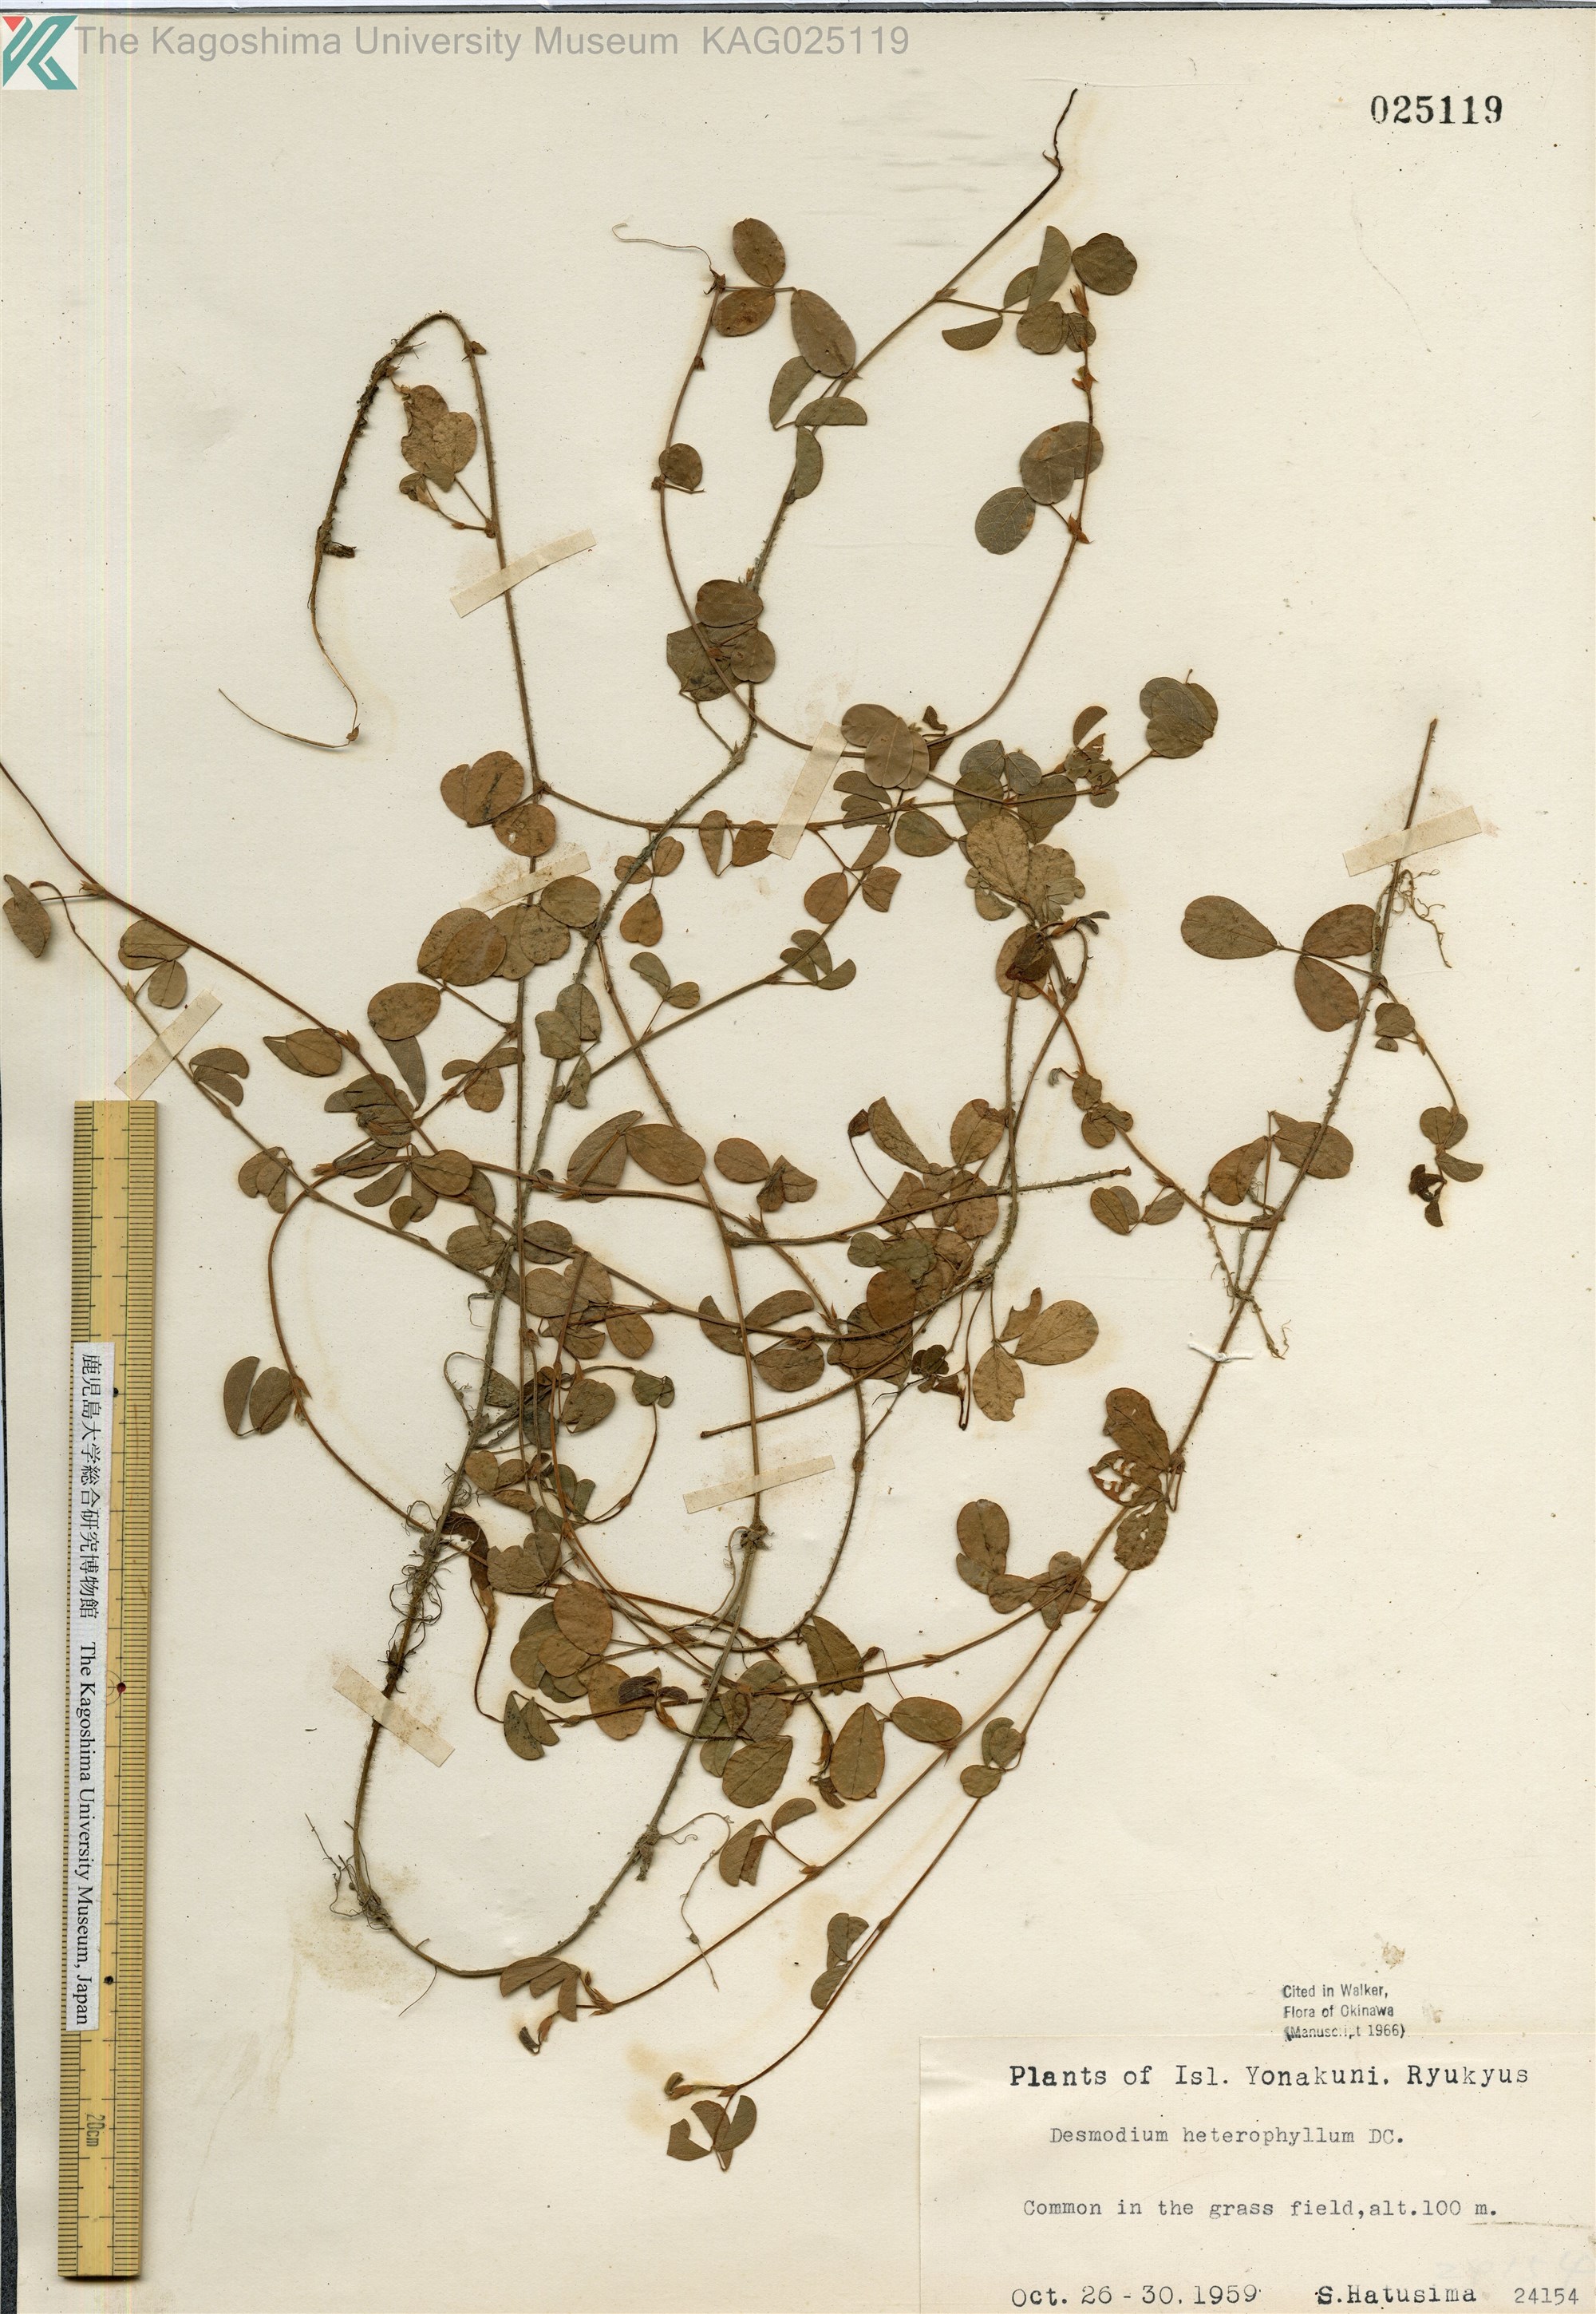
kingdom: Plantae
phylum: Tracheophyta
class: Magnoliopsida
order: Fabales
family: Fabaceae
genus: Desmodium
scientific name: Desmodium heterophyllum
